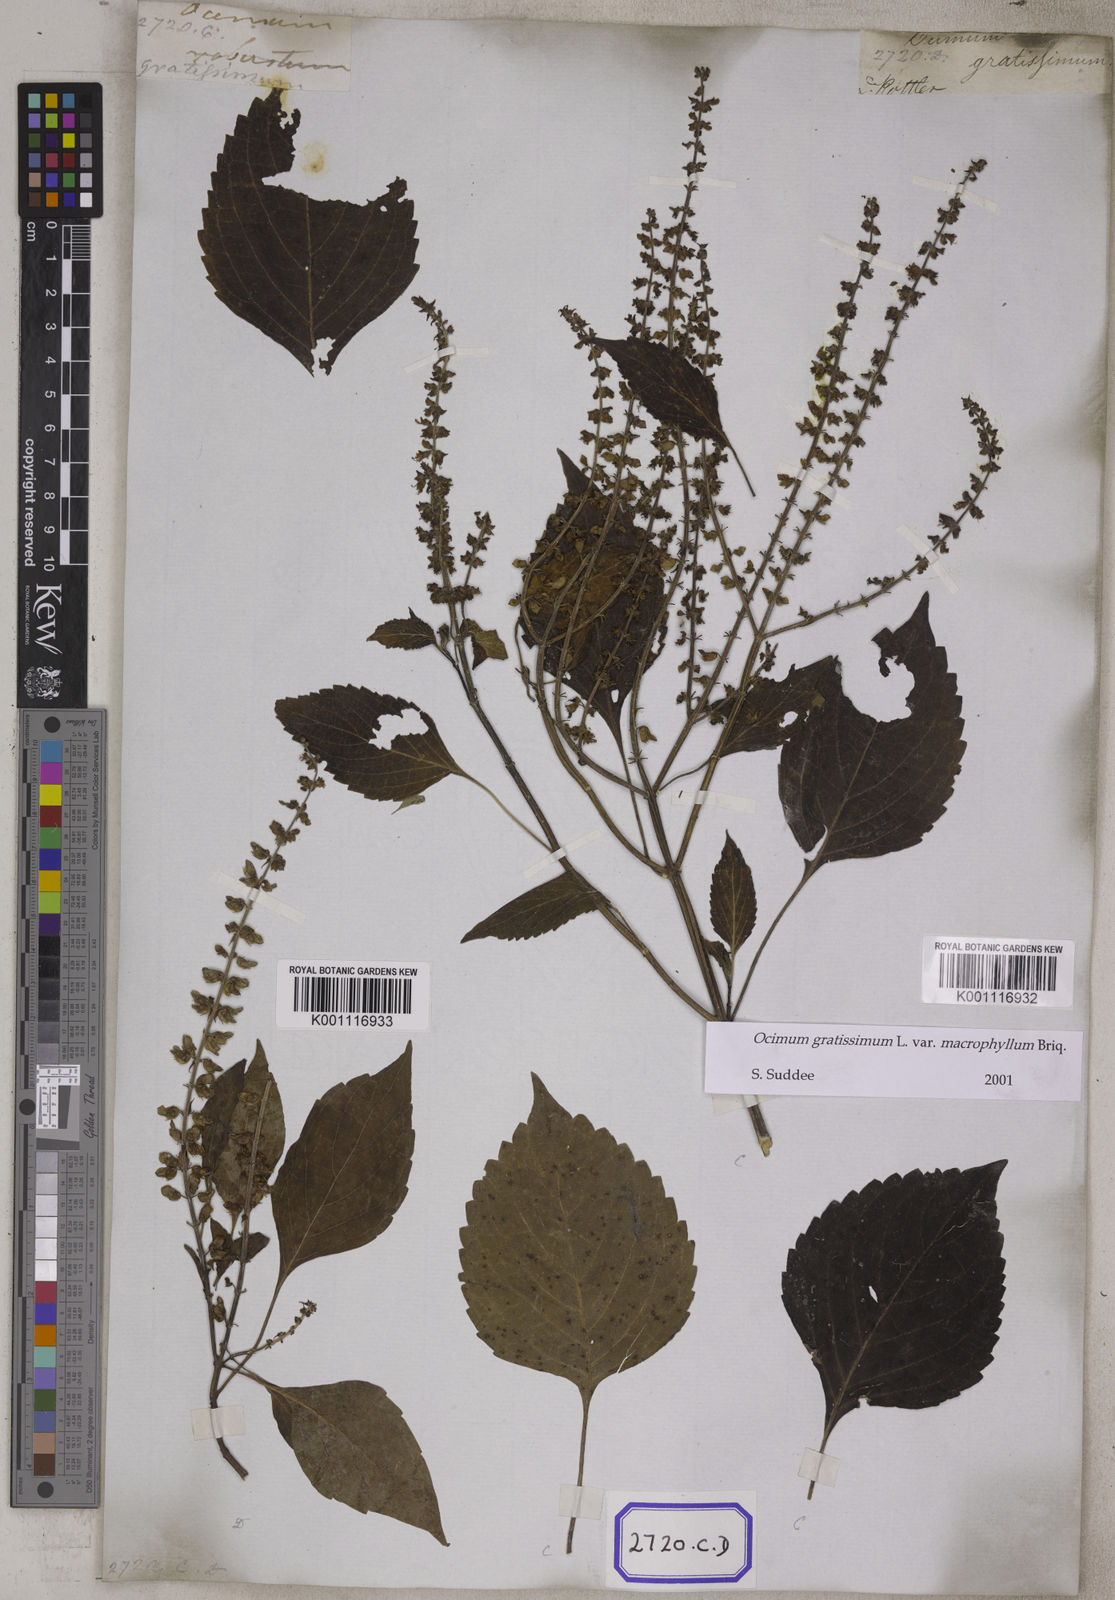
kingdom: Plantae
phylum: Tracheophyta
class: Magnoliopsida
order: Lamiales
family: Lamiaceae
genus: Ocimum
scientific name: Ocimum gratissimum
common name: African basil
